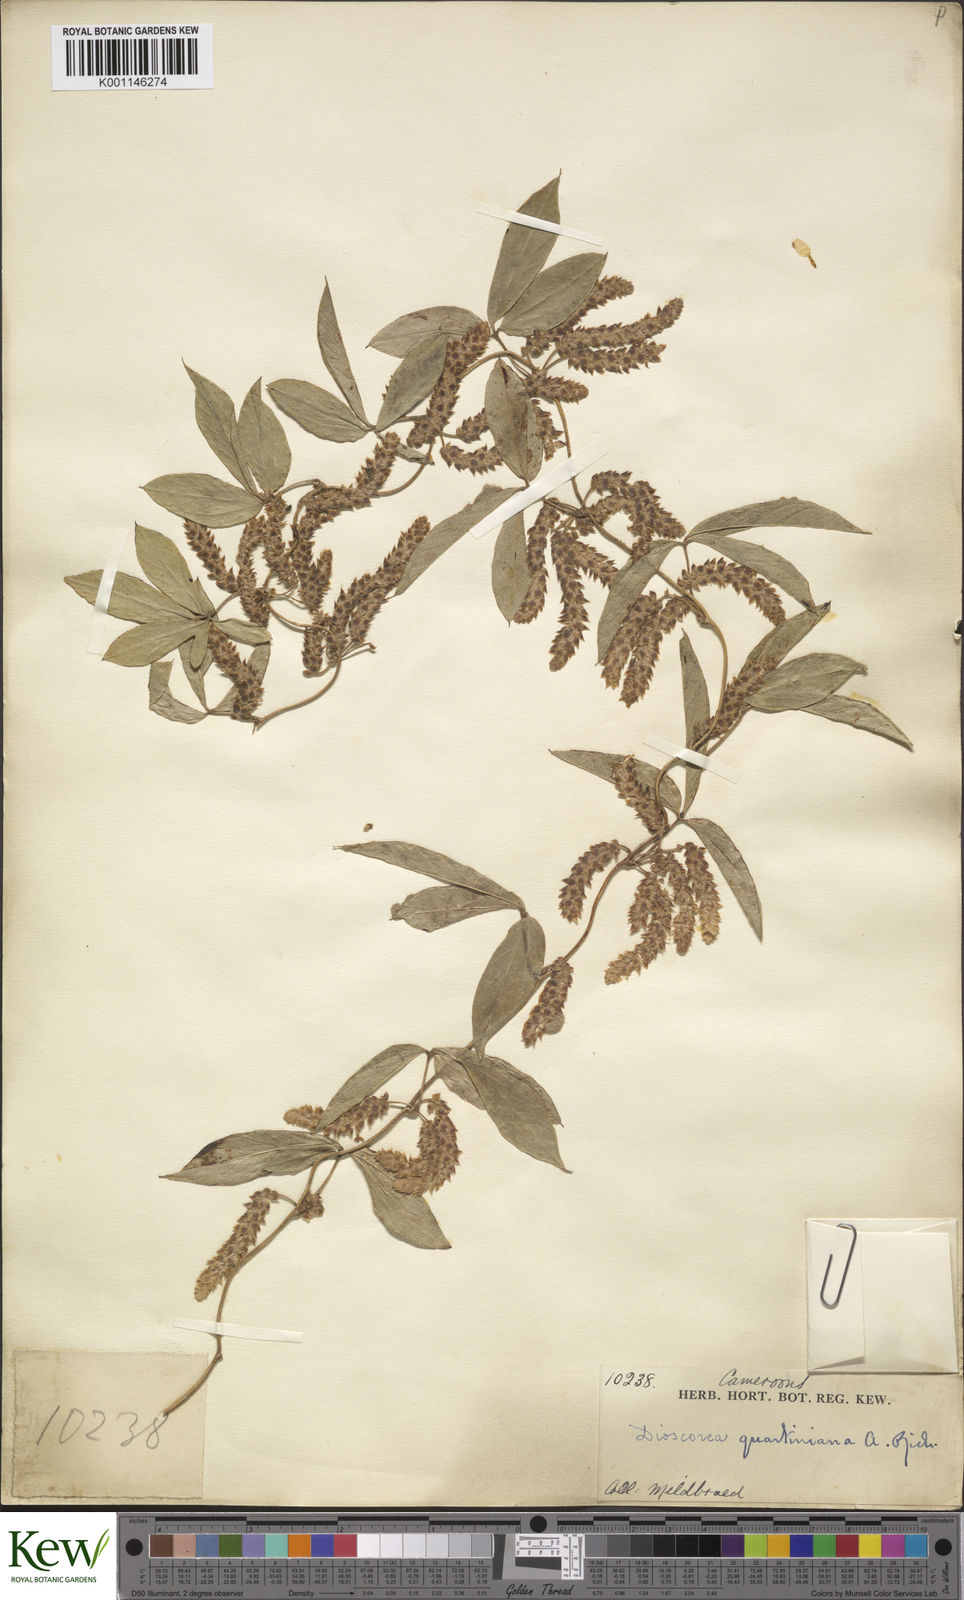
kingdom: Plantae
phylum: Tracheophyta
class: Liliopsida
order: Dioscoreales
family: Dioscoreaceae
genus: Dioscorea
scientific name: Dioscorea quartiniana
